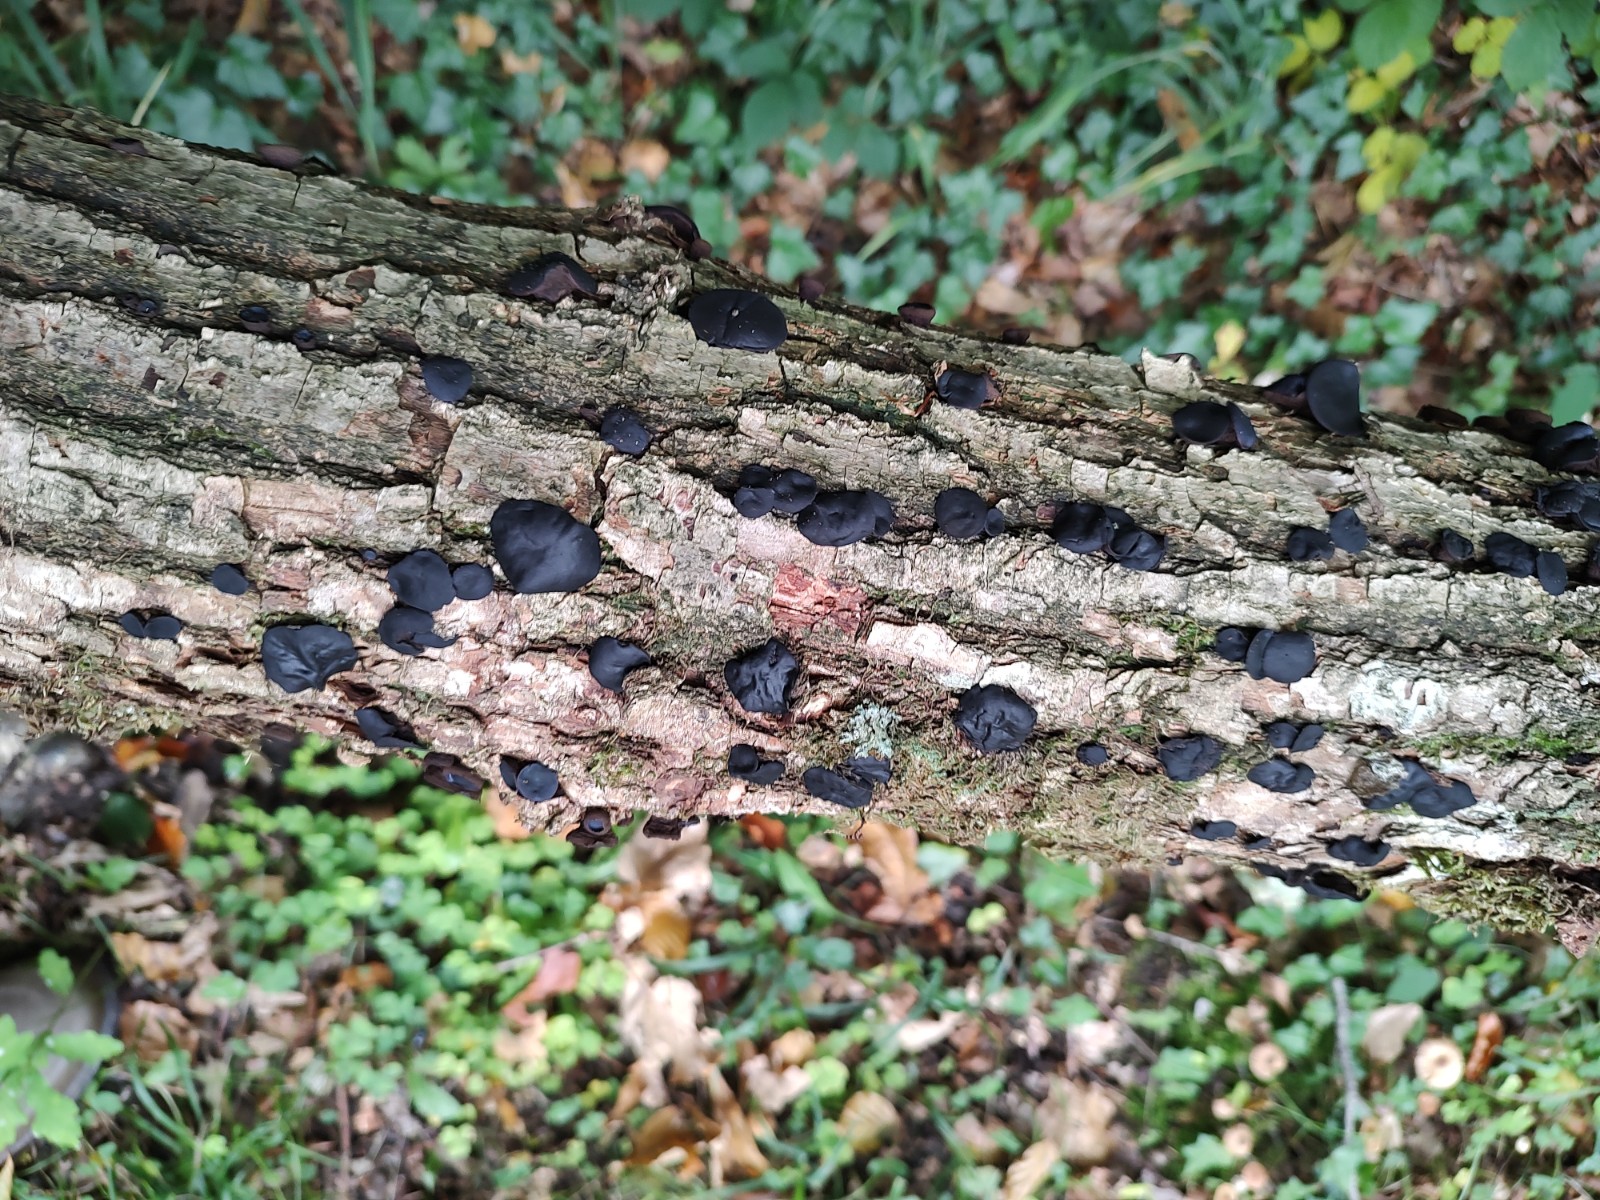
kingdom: Fungi
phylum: Ascomycota
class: Leotiomycetes
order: Phacidiales
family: Phacidiaceae
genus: Bulgaria
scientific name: Bulgaria inquinans
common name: afsmittende topsvamp
